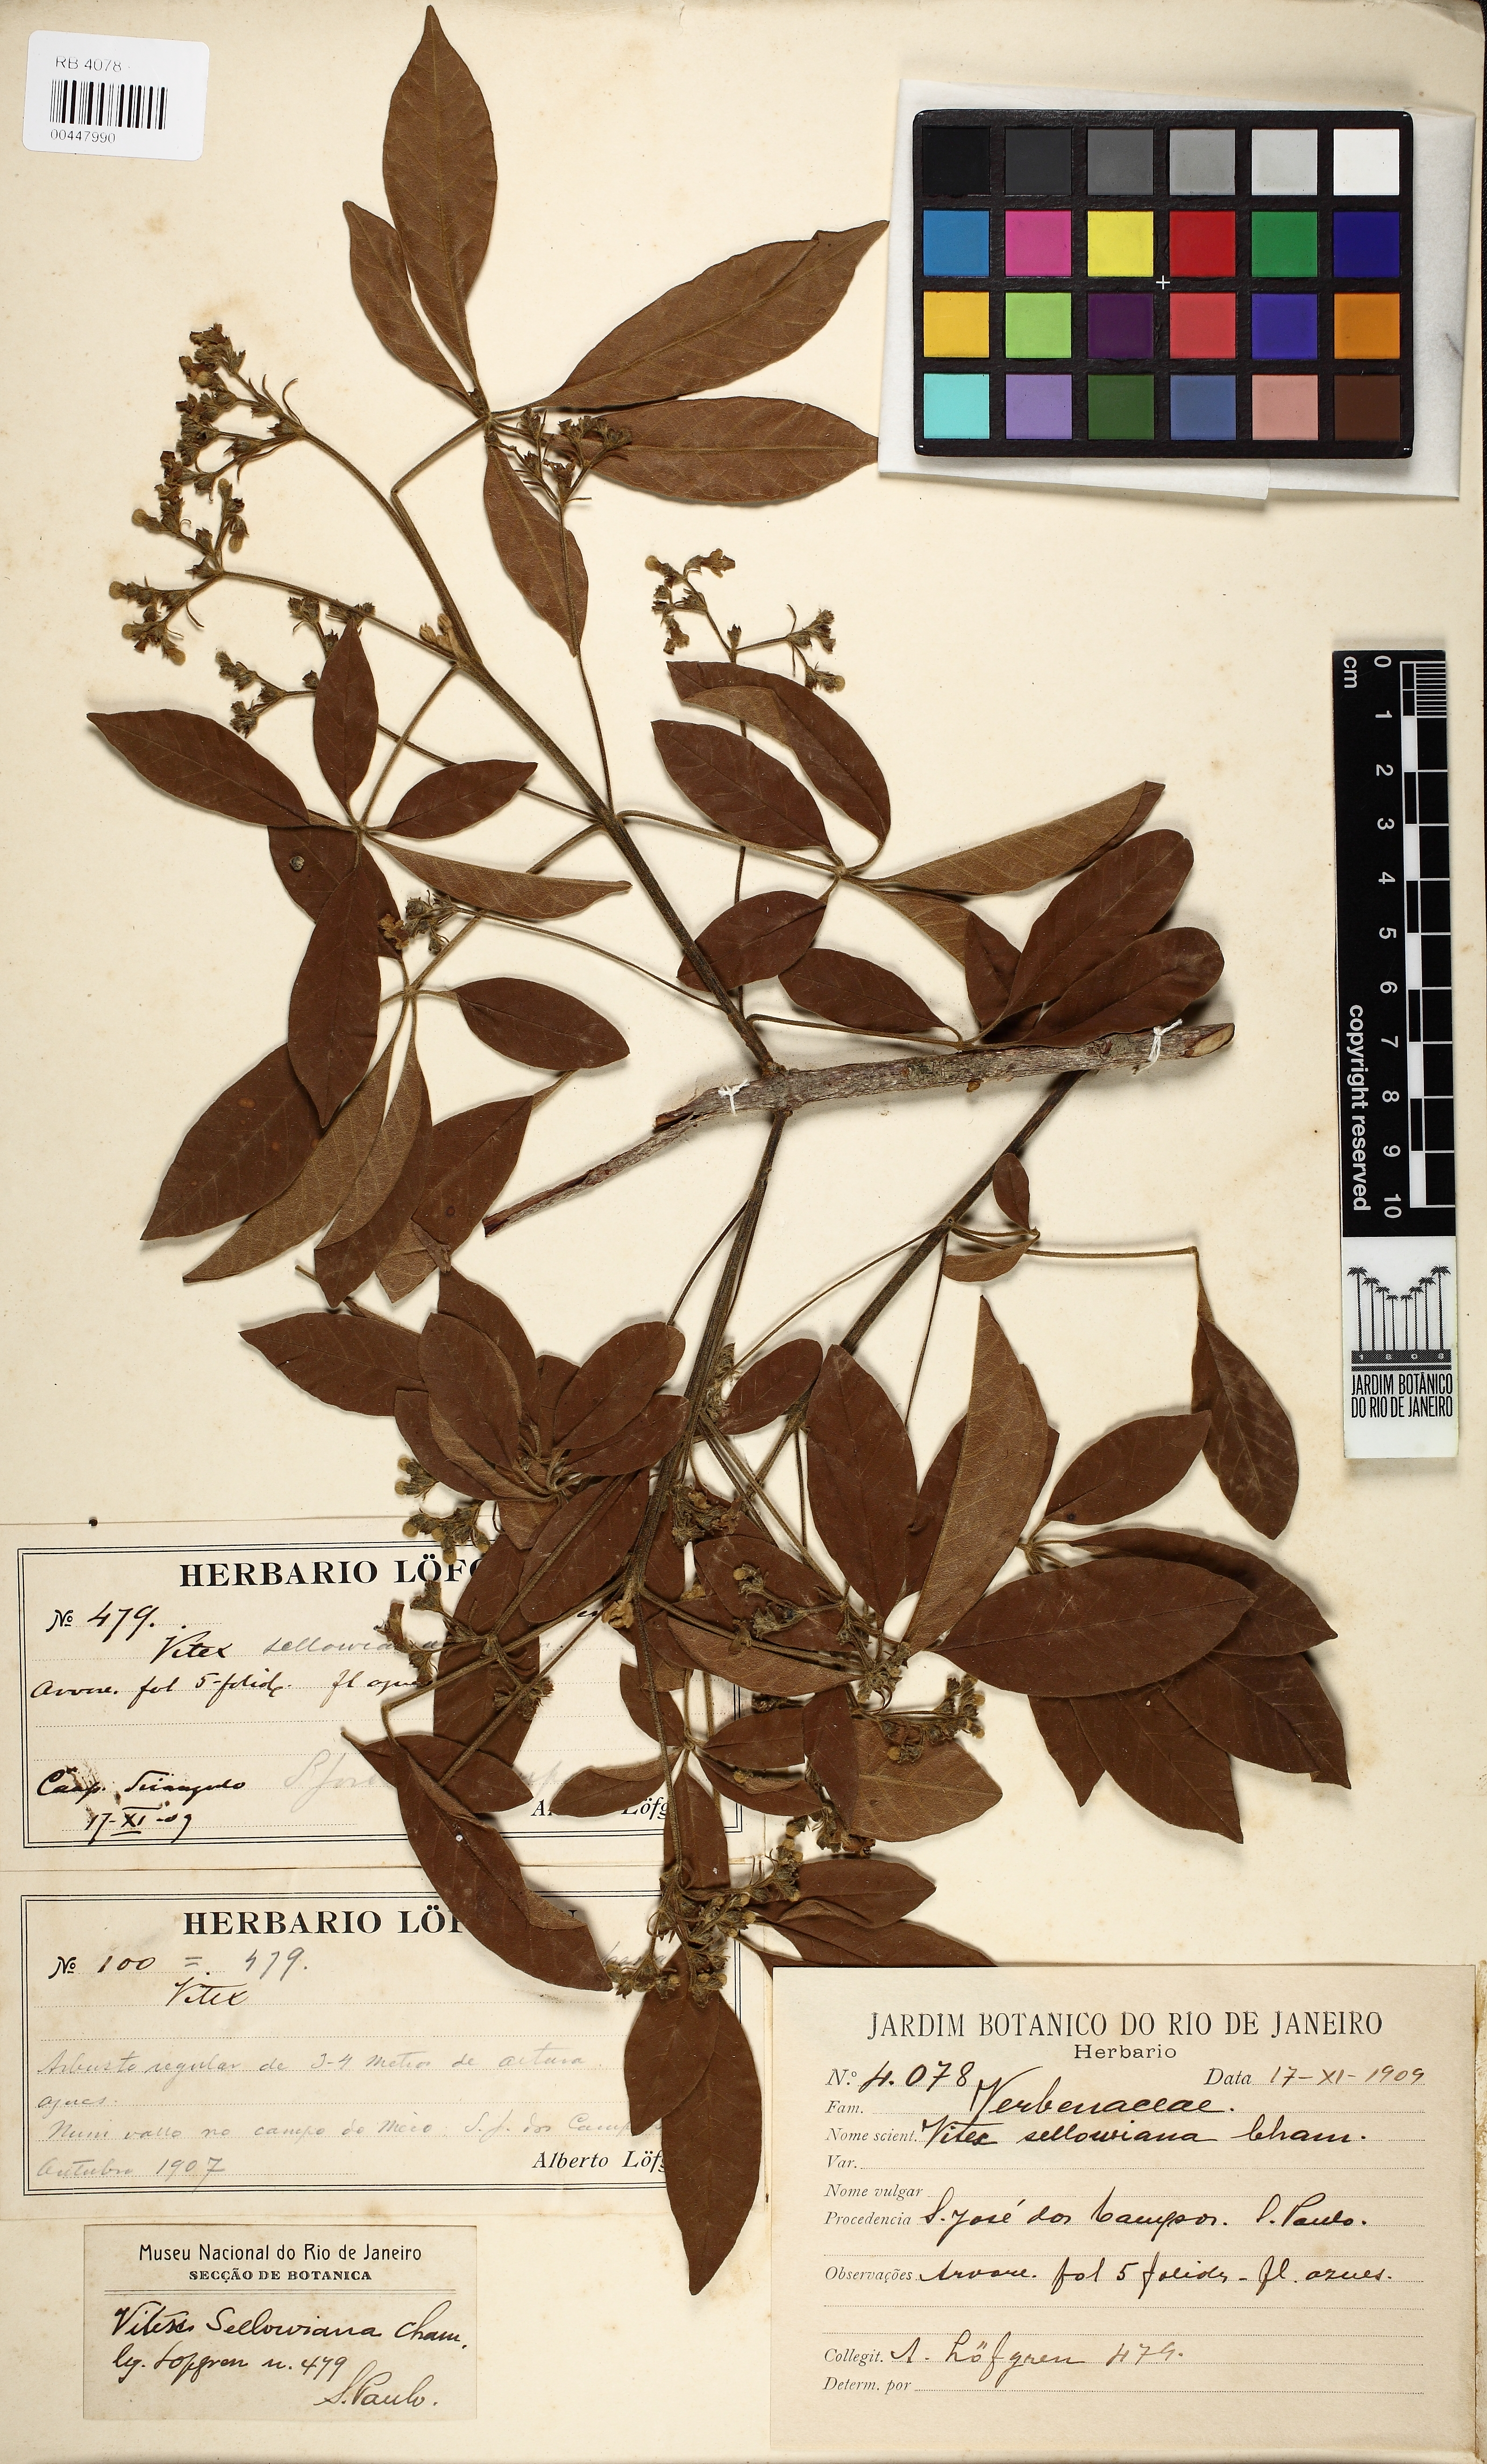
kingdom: Plantae
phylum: Tracheophyta
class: Magnoliopsida
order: Lamiales
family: Lamiaceae
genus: Vitex
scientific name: Vitex sellowiana
